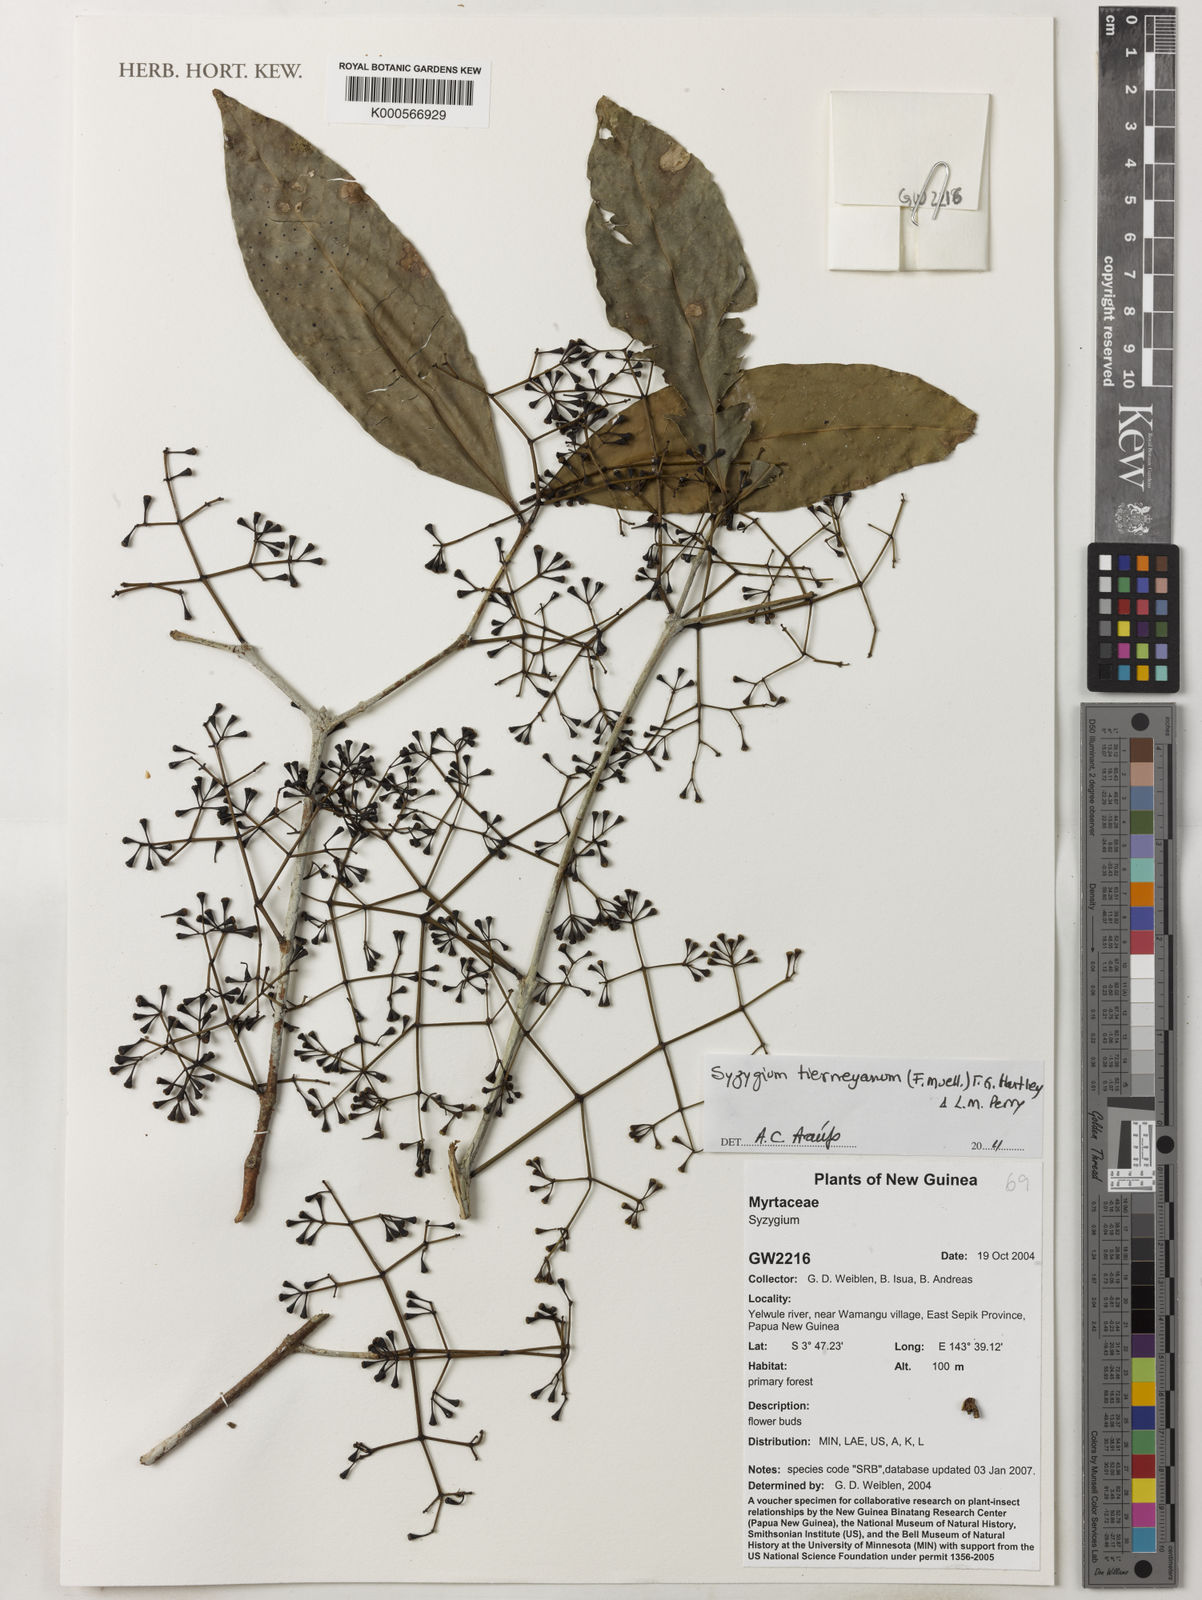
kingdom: Plantae
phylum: Tracheophyta
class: Magnoliopsida
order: Myrtales
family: Myrtaceae
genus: Syzygium
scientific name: Syzygium tierneyanum
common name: River-cherry
